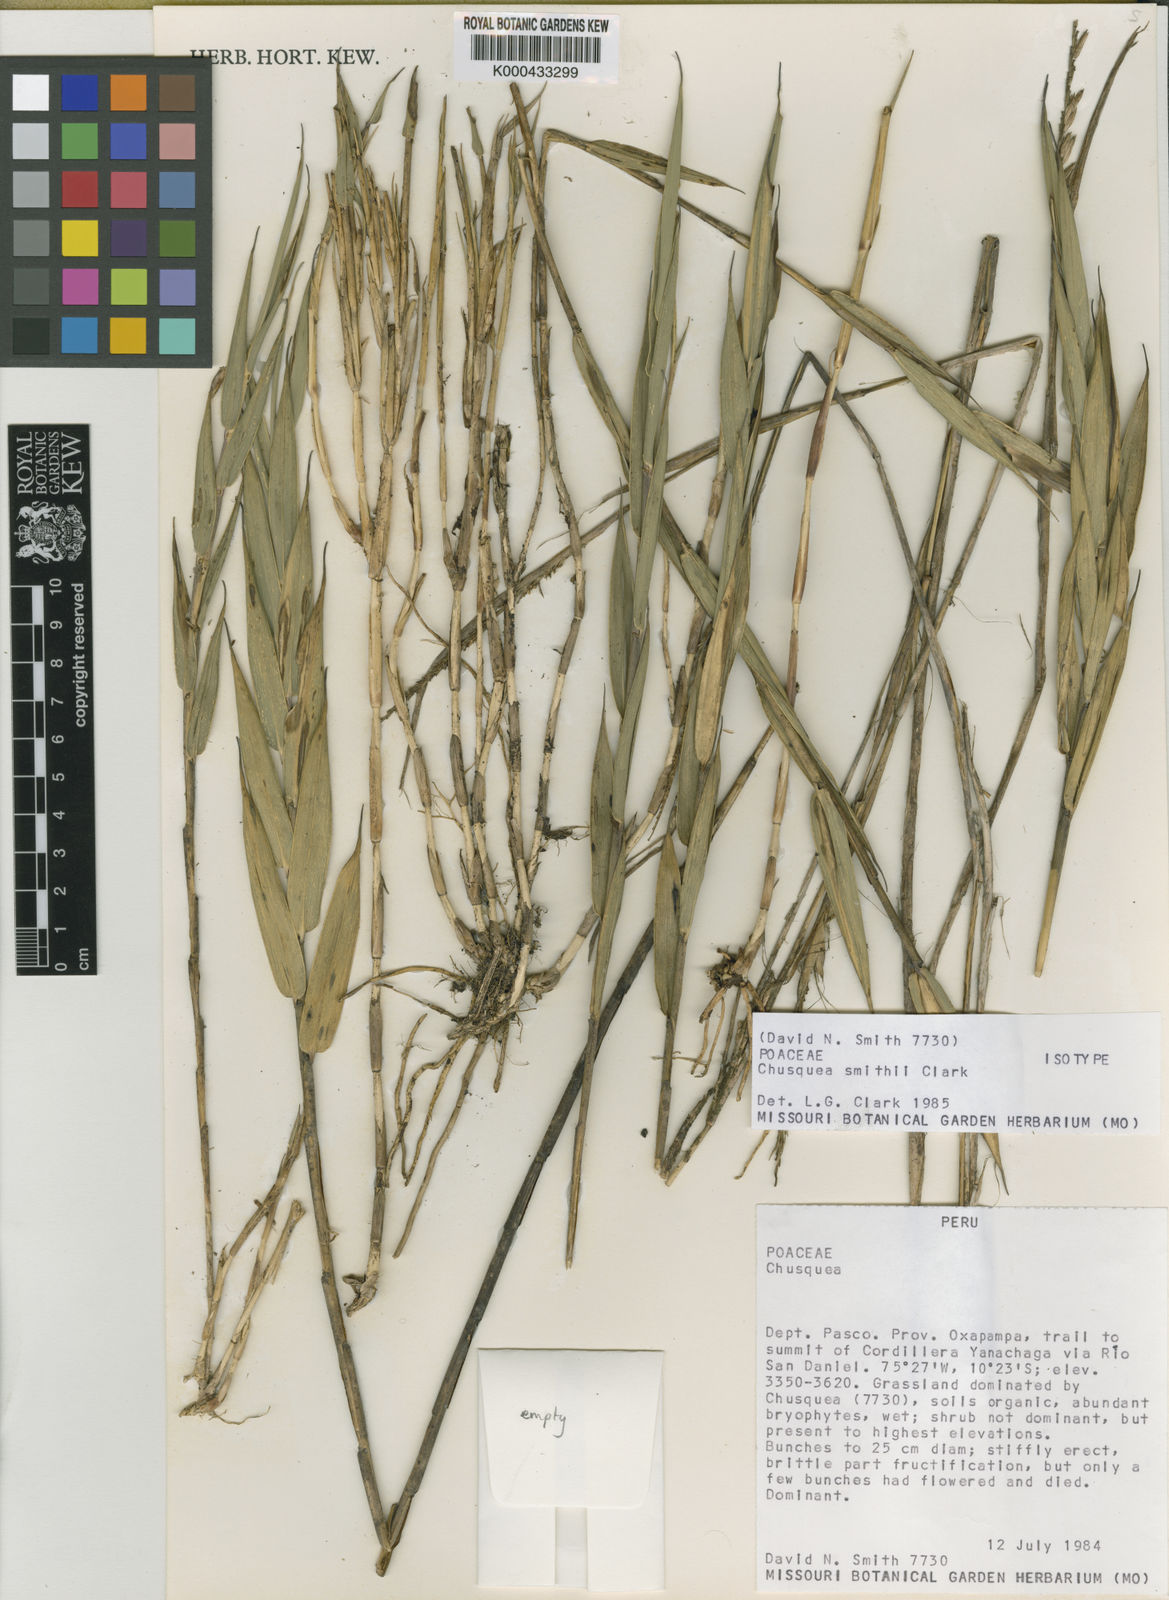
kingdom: Plantae
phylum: Tracheophyta
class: Liliopsida
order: Poales
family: Poaceae
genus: Chusquea
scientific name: Chusquea smithii
